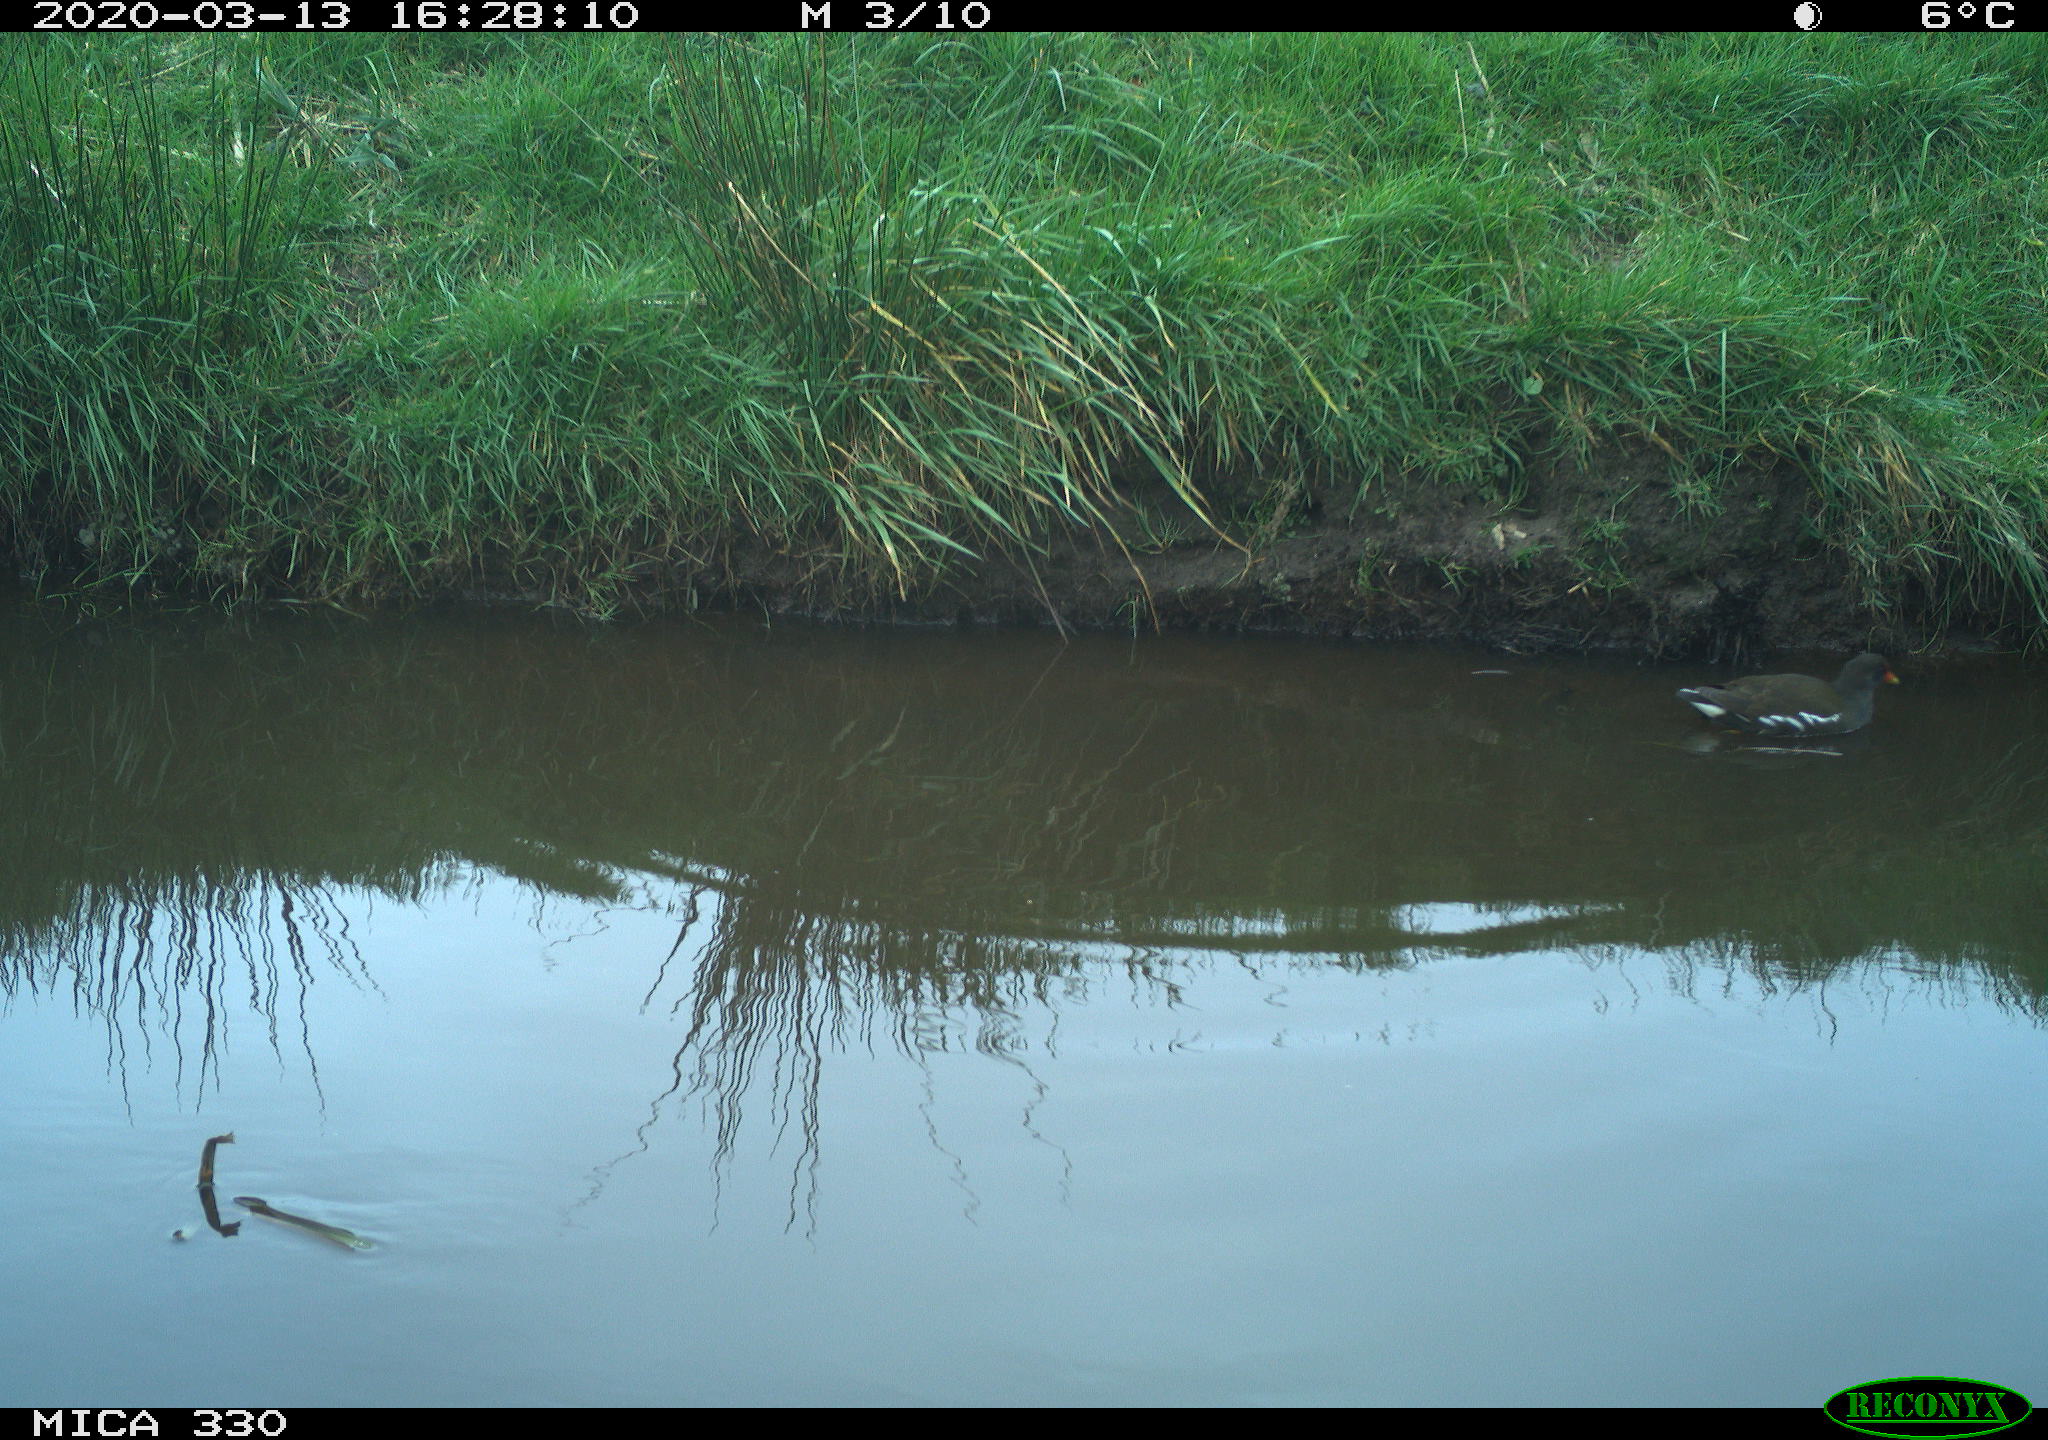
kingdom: Animalia
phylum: Chordata
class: Aves
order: Gruiformes
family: Rallidae
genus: Gallinula
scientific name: Gallinula chloropus
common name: Common moorhen
